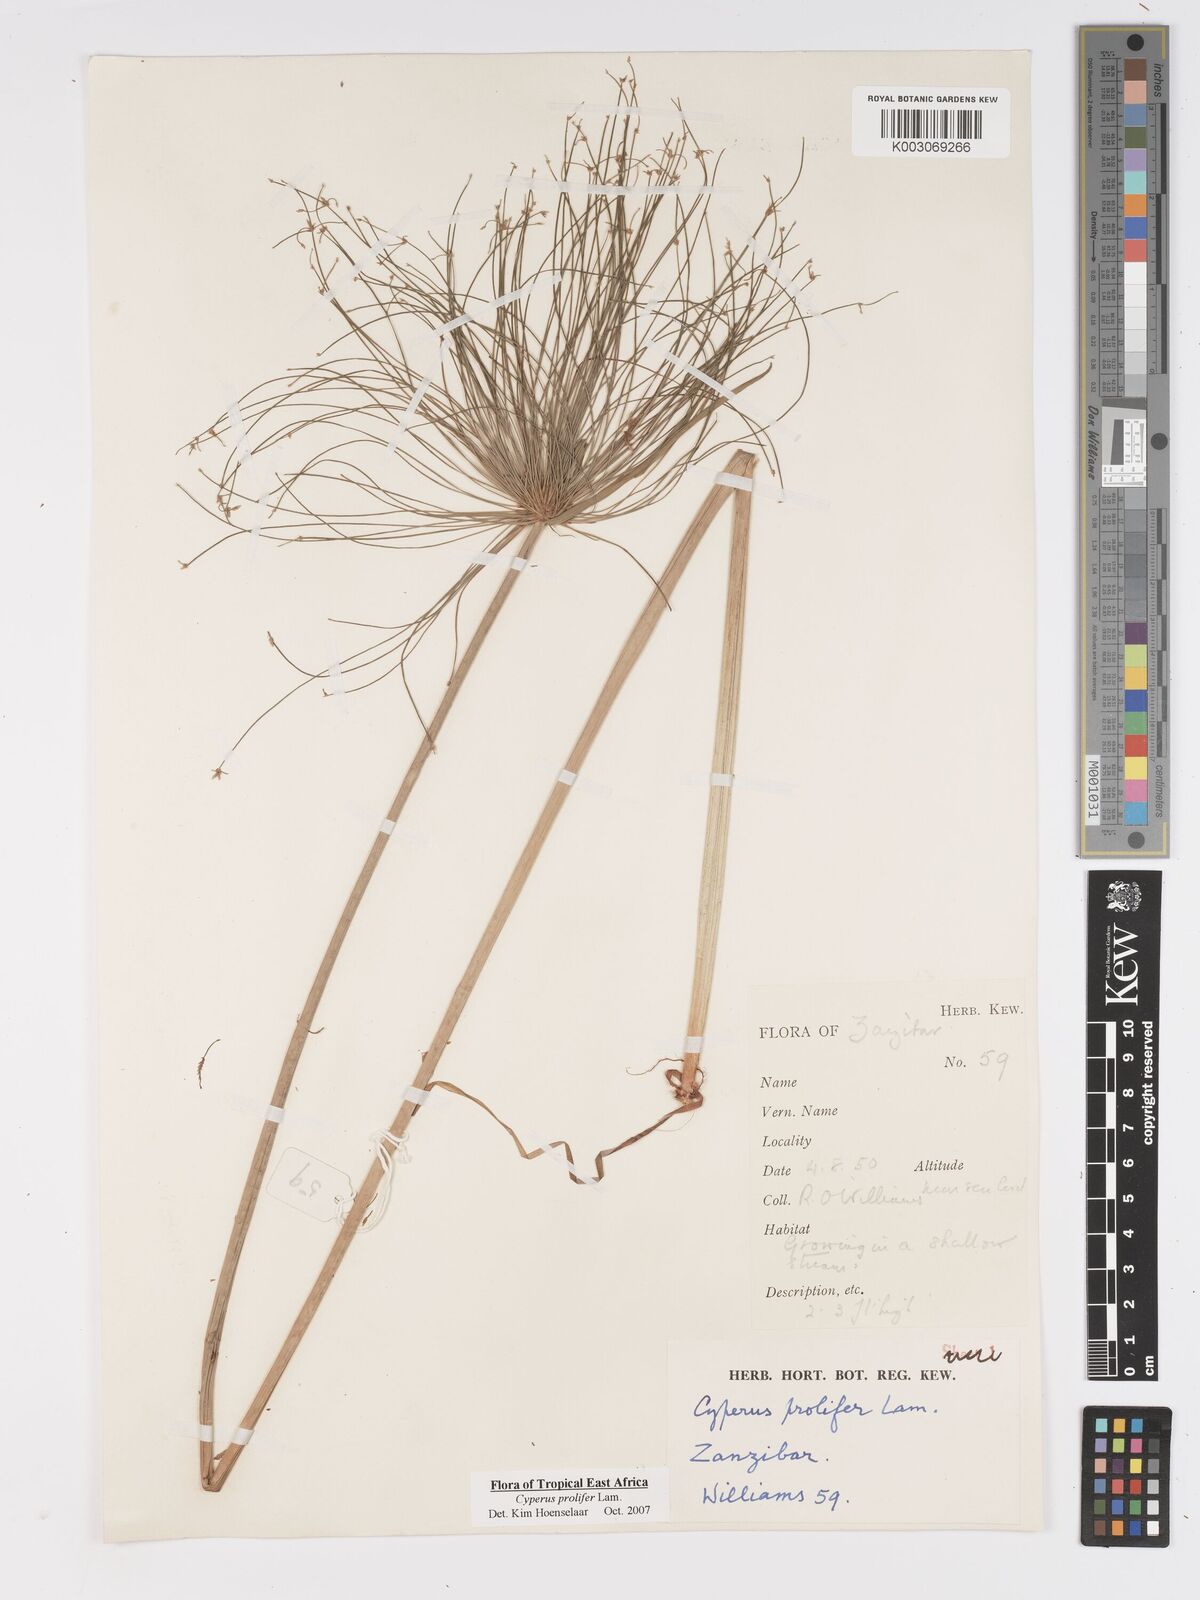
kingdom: Plantae
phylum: Tracheophyta
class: Liliopsida
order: Poales
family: Cyperaceae
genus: Cyperus
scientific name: Cyperus prolifer
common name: Miniature flatsedge
